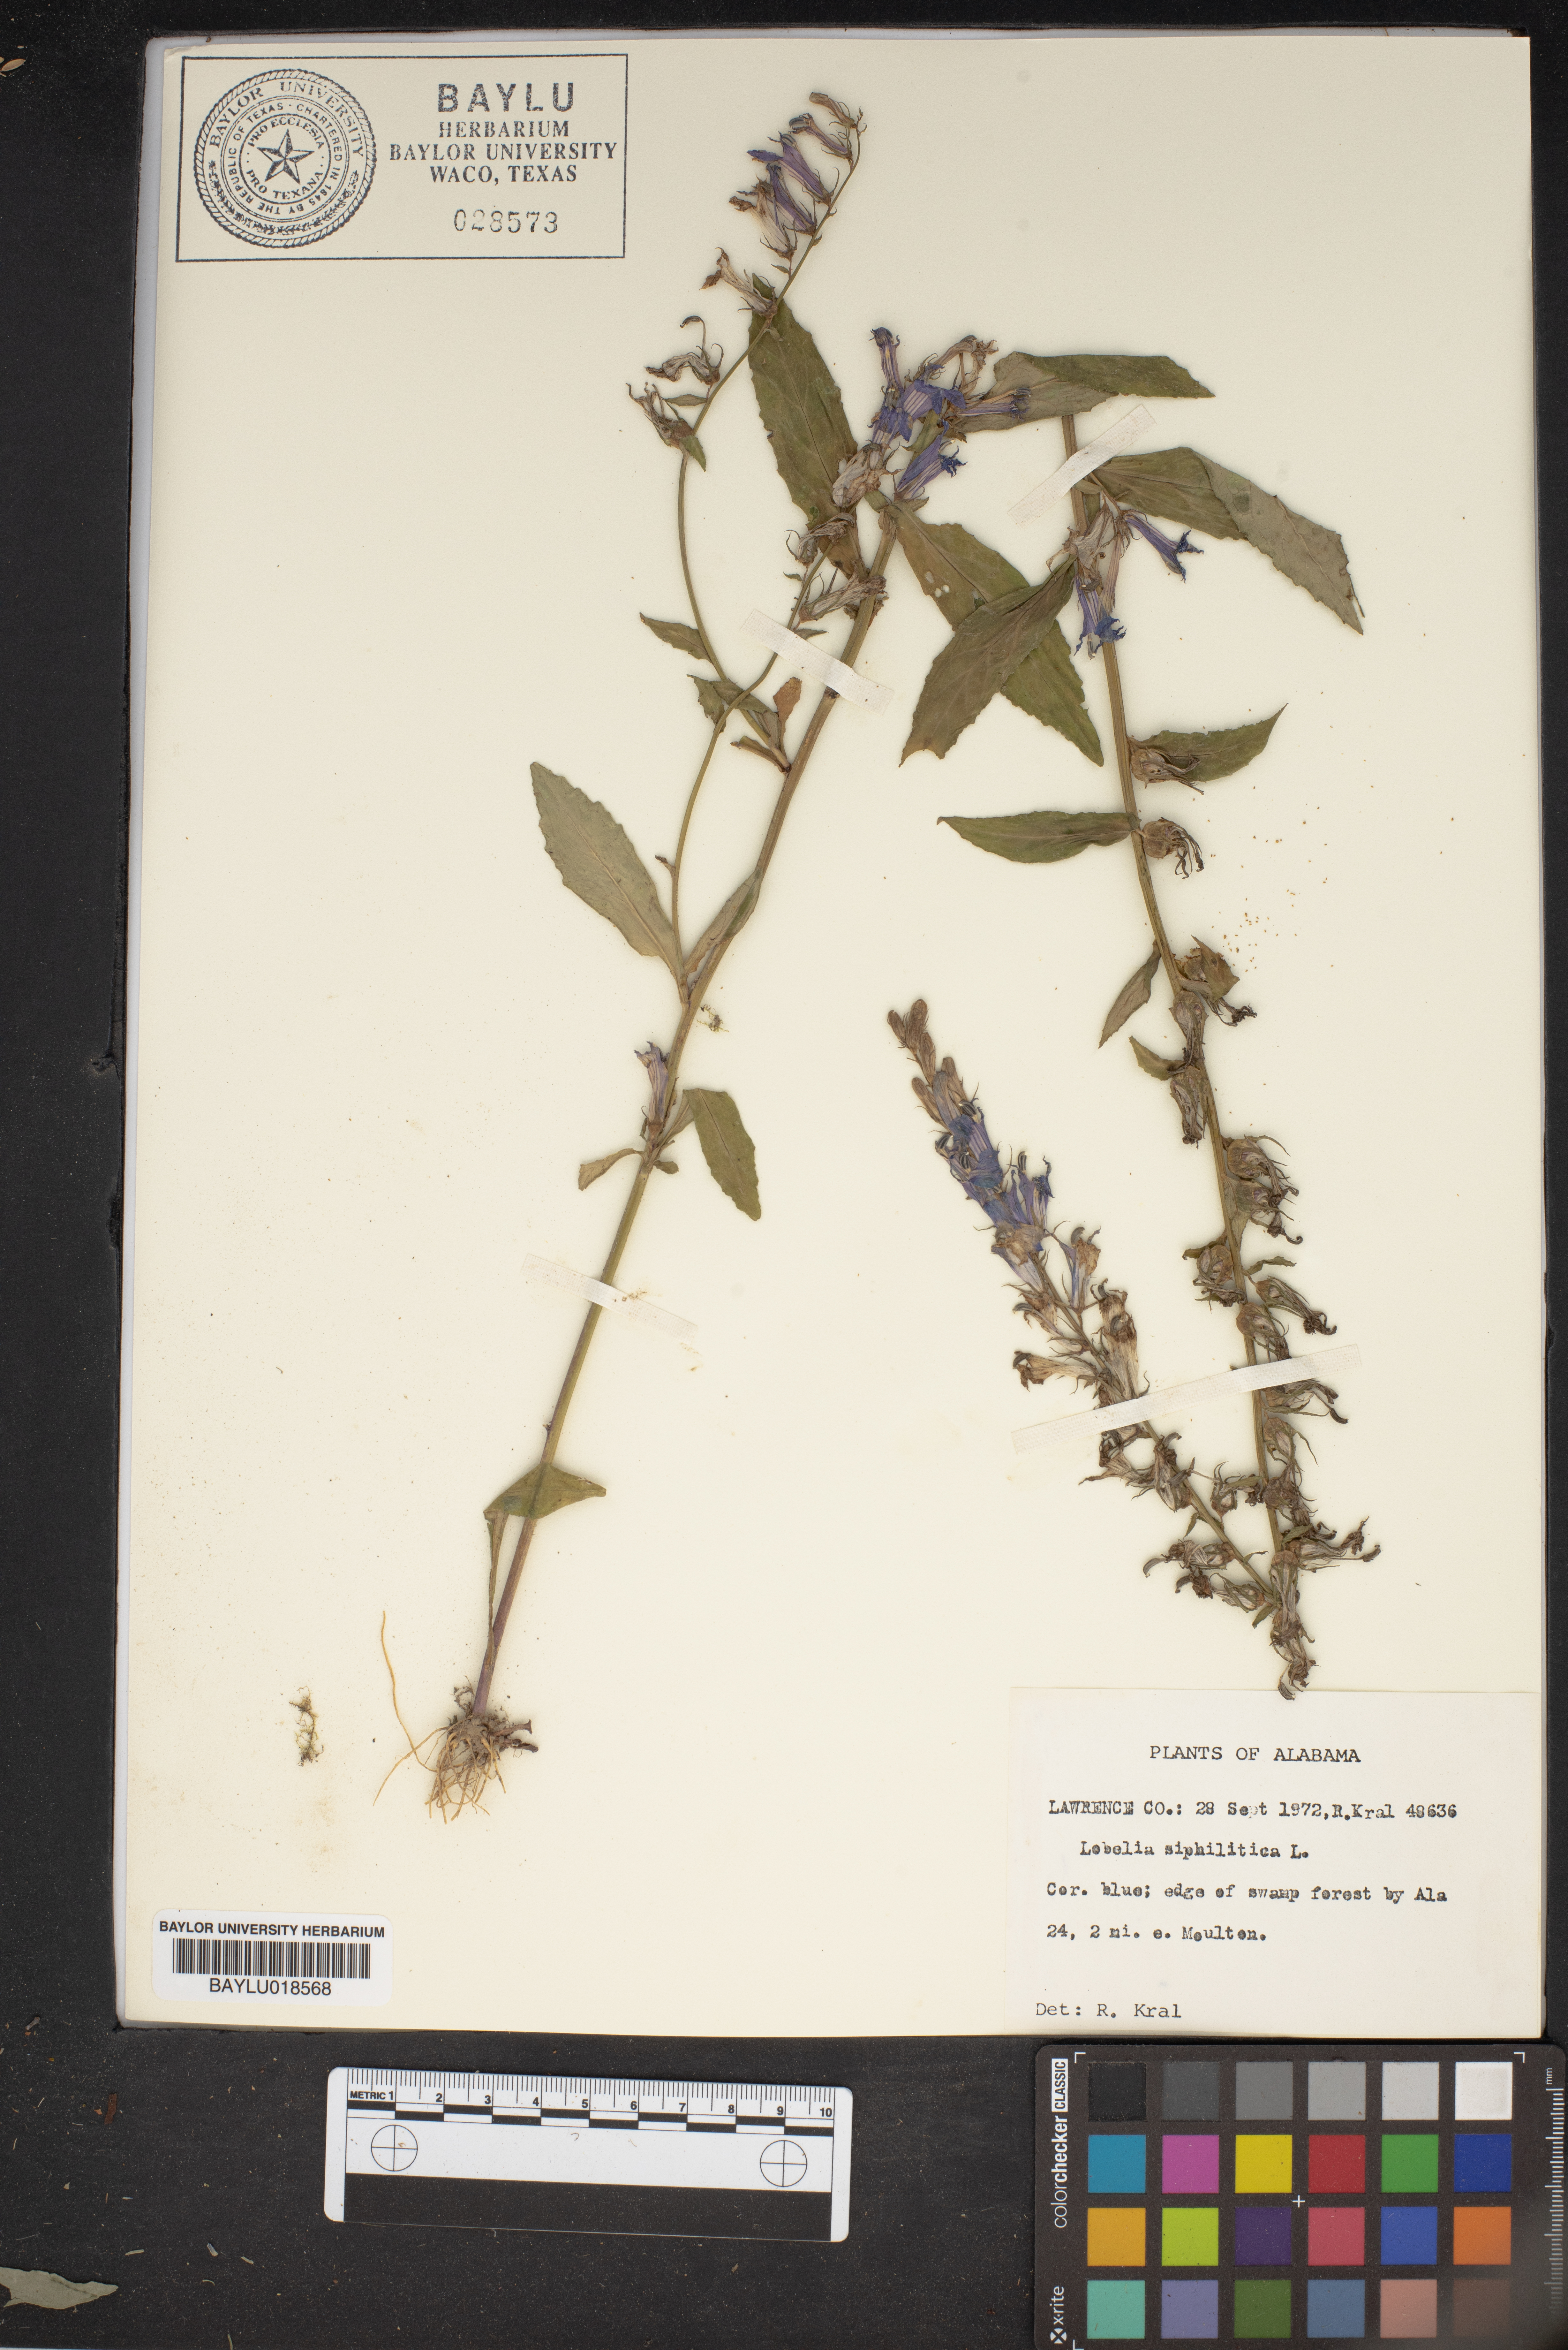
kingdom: Plantae
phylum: Tracheophyta
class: Magnoliopsida
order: Asterales
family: Campanulaceae
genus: Lobelia
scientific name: Lobelia siphilitica
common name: Great lobelia
